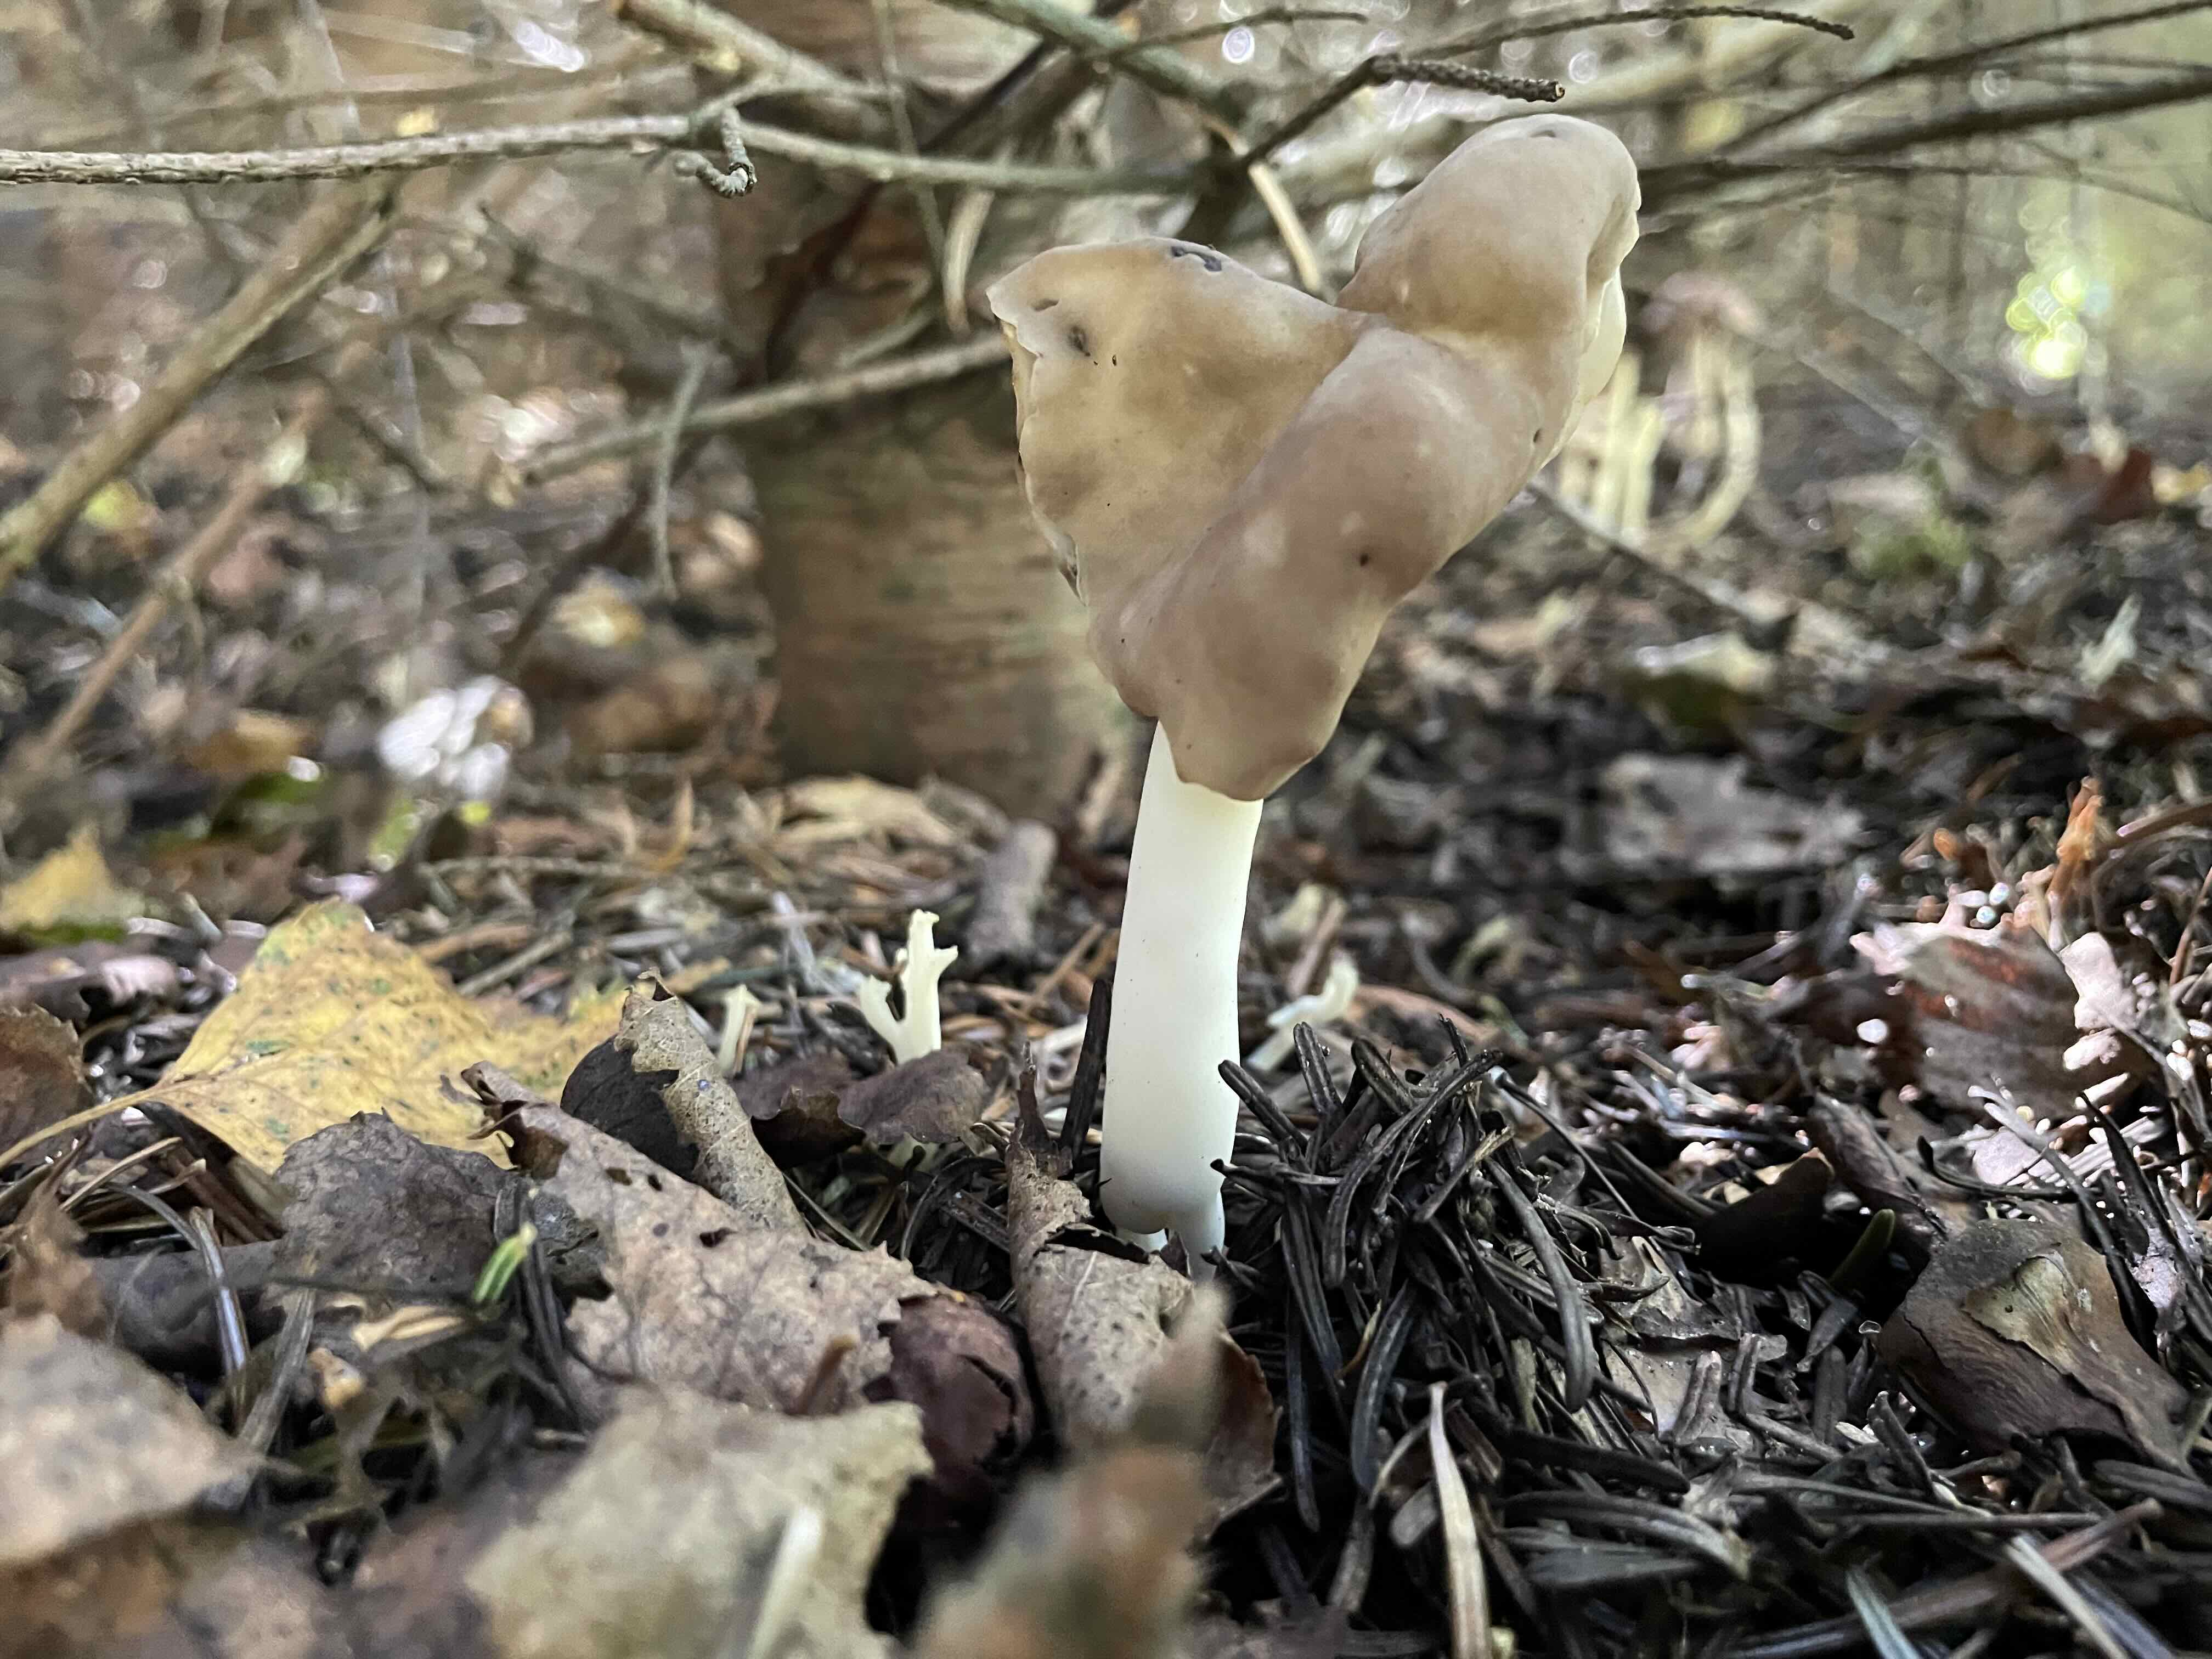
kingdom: Fungi
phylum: Ascomycota
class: Pezizomycetes
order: Pezizales
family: Helvellaceae
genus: Helvella
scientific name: Helvella elastica
